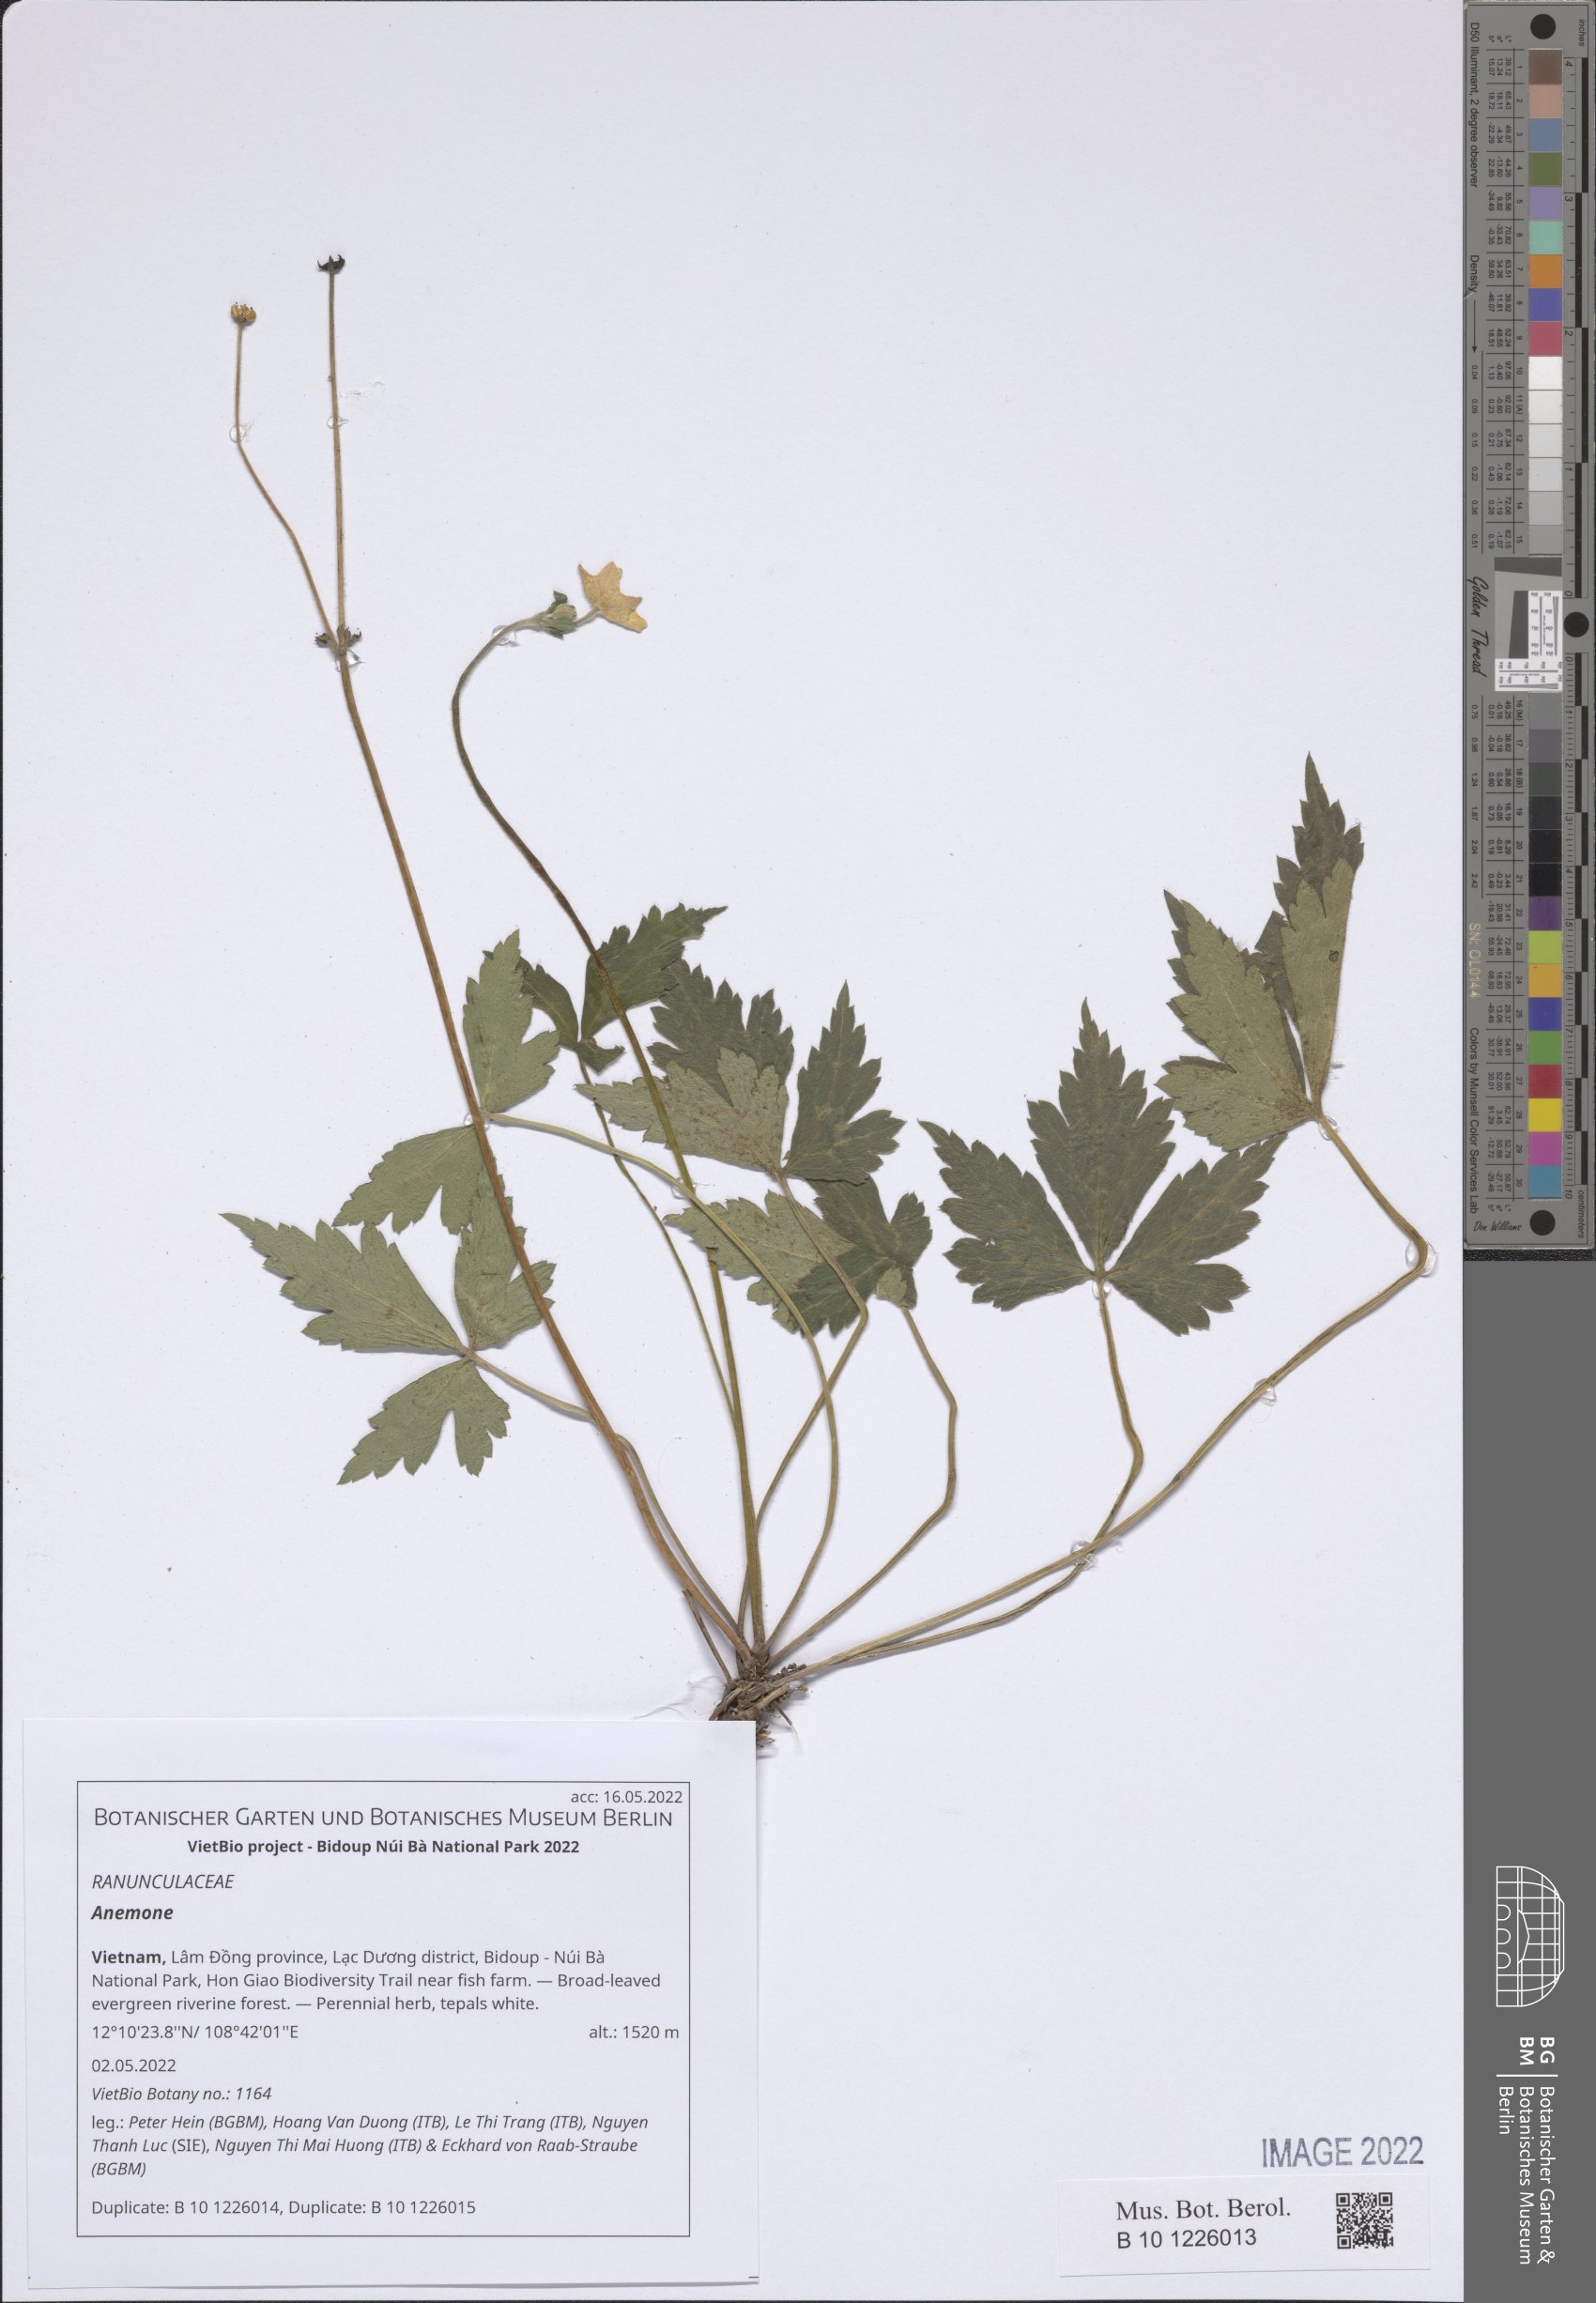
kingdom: Plantae
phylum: Tracheophyta
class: Magnoliopsida
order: Ranunculales
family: Ranunculaceae
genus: Anemone
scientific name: Anemone
